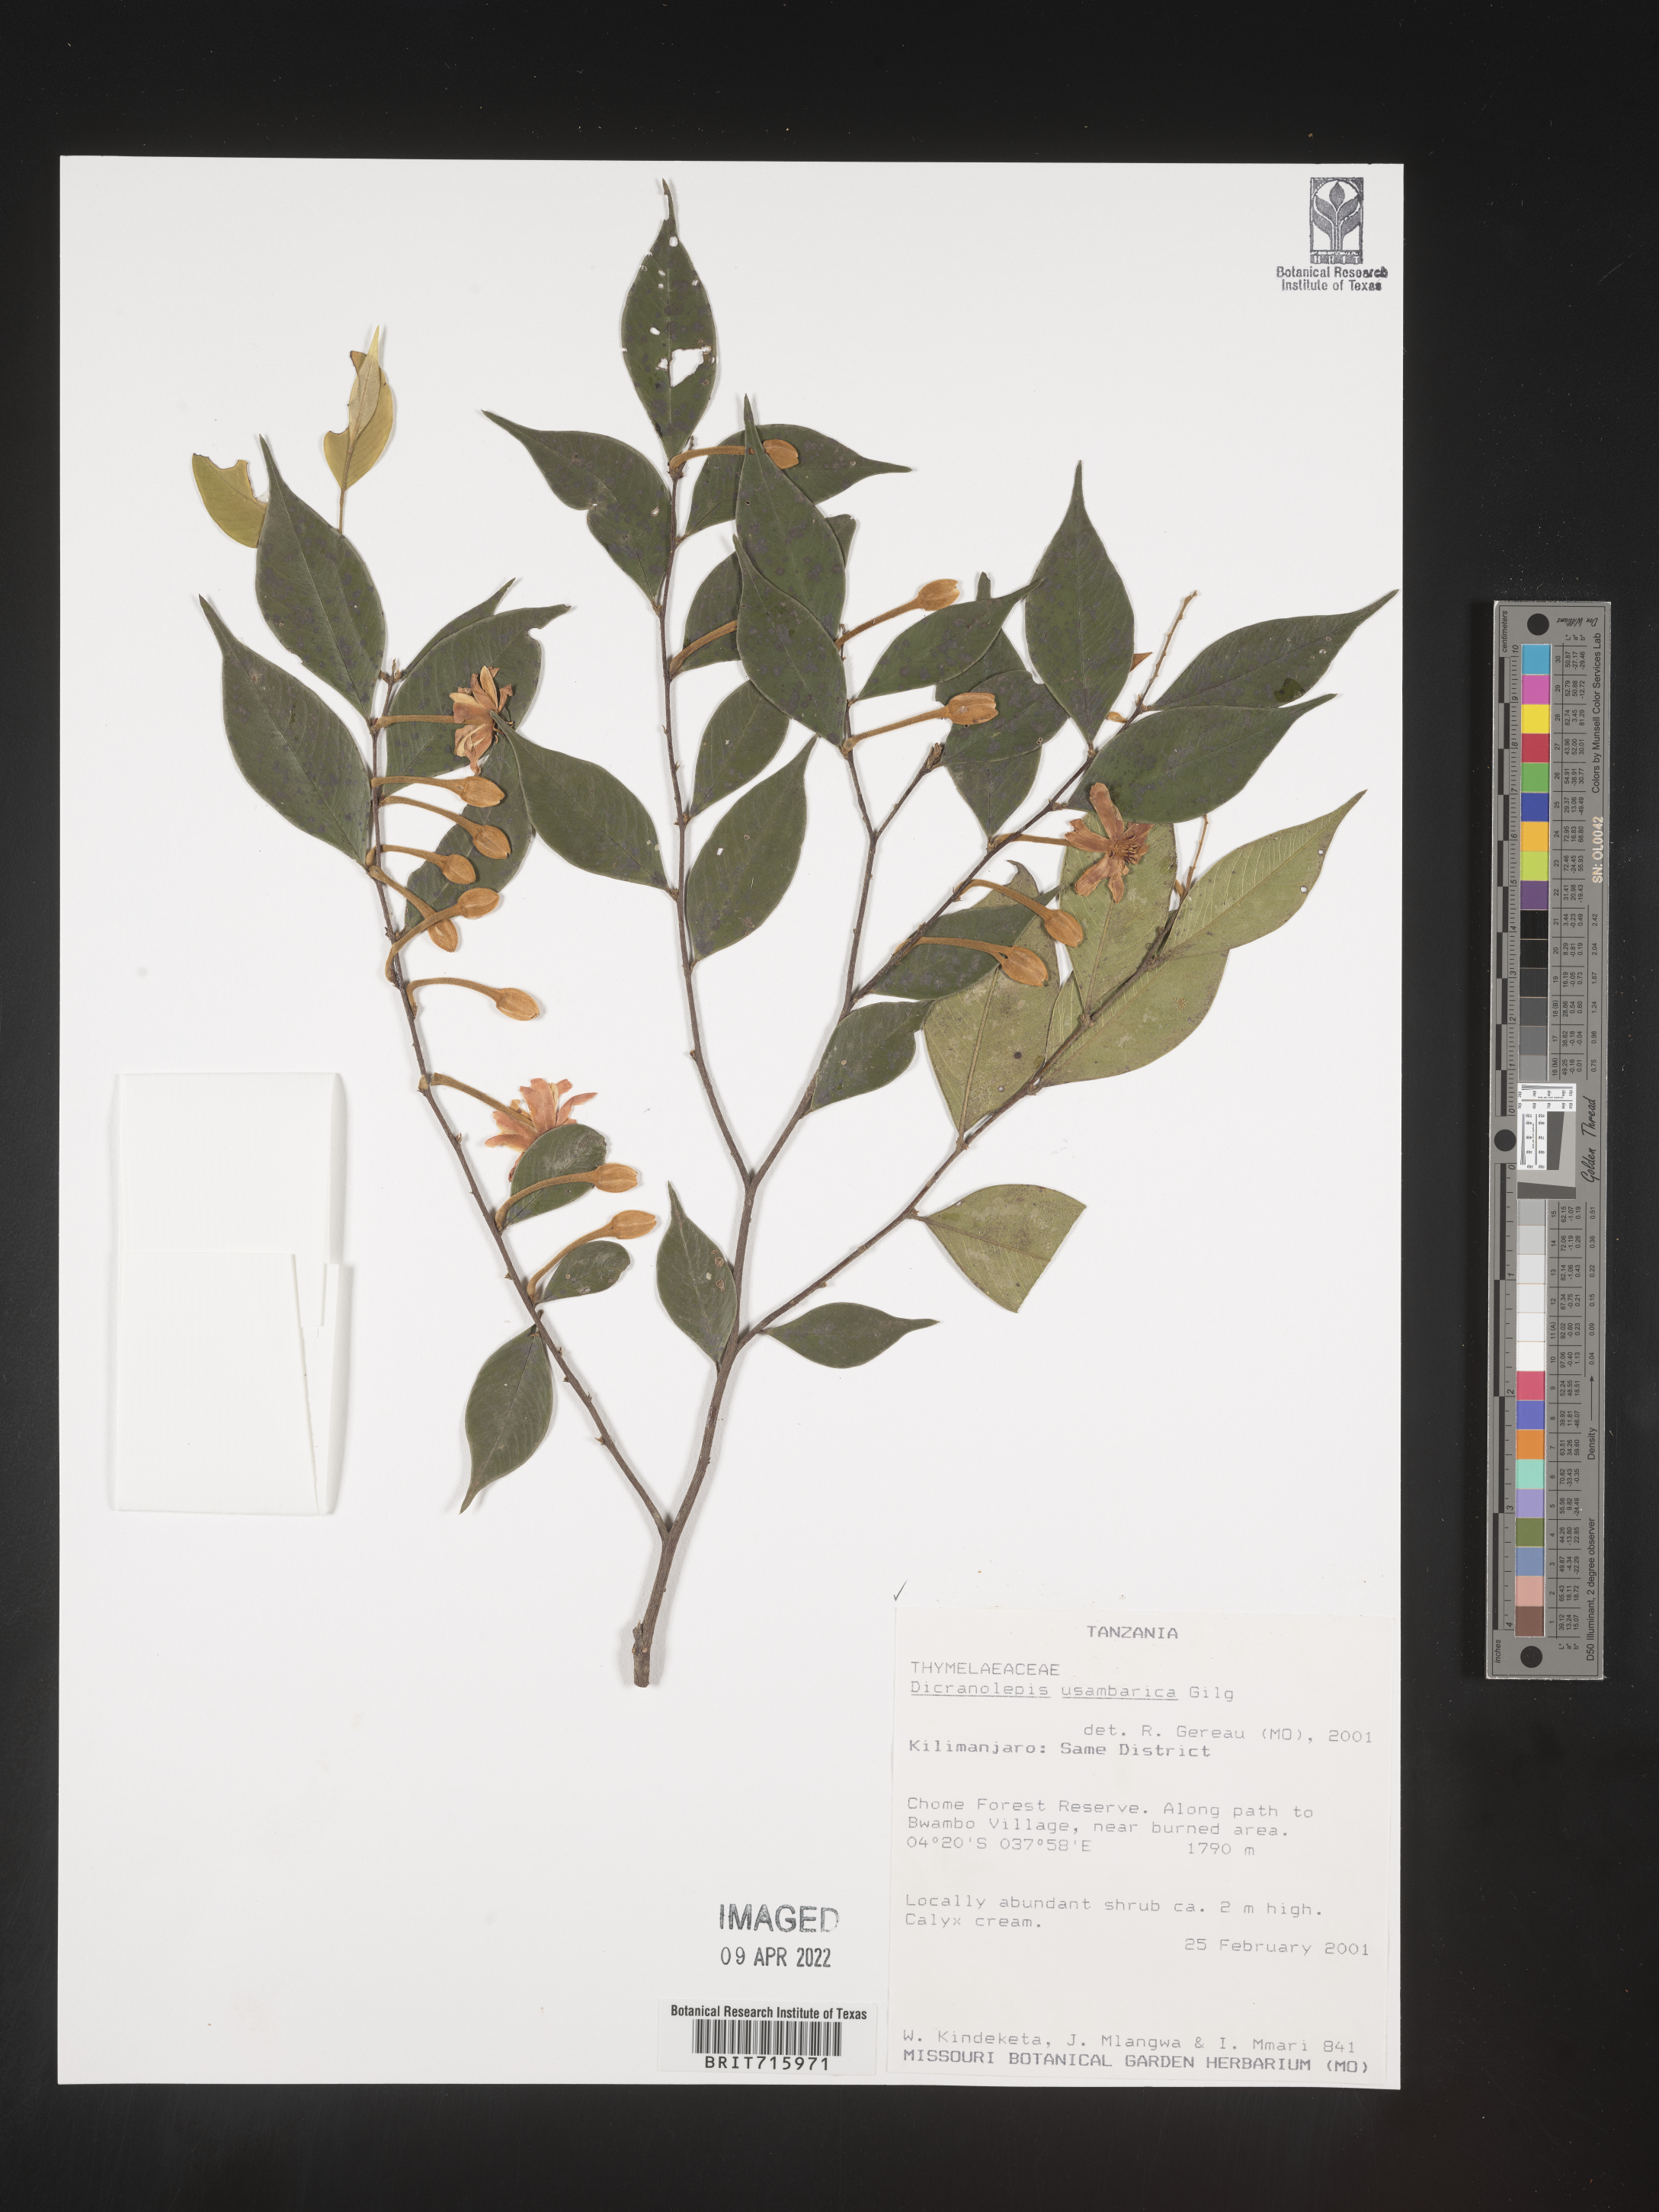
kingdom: Plantae
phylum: Tracheophyta
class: Magnoliopsida
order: Malvales
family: Thymelaeaceae
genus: Dicranolepis
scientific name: Dicranolepis
